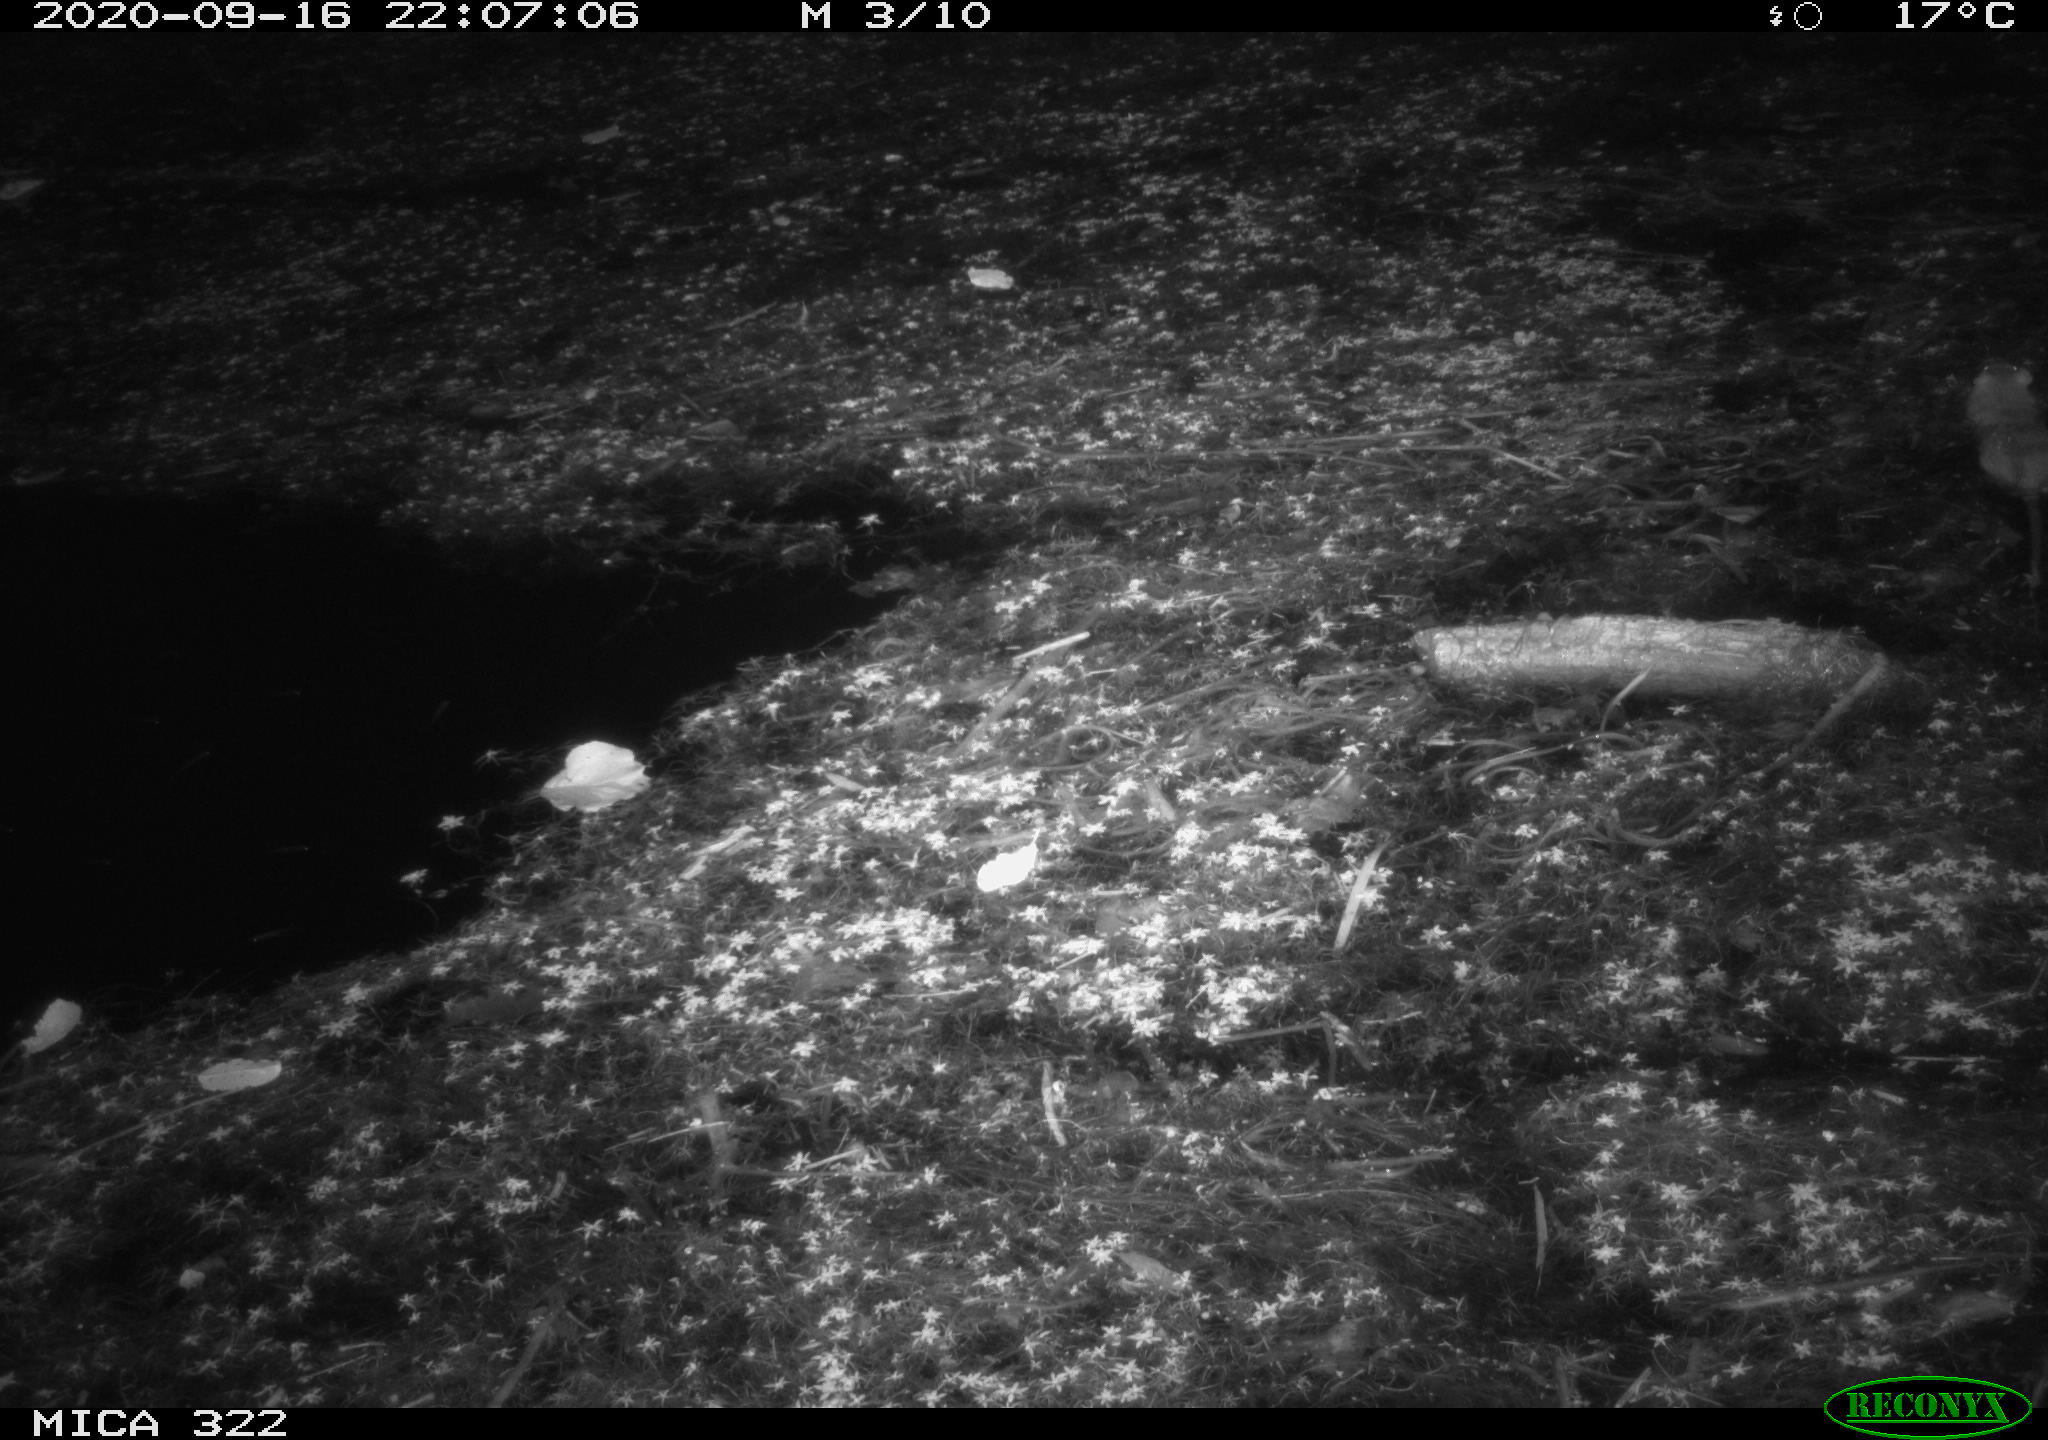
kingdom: Animalia
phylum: Chordata
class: Mammalia
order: Rodentia
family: Muridae
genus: Rattus
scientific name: Rattus norvegicus
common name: Brown rat
